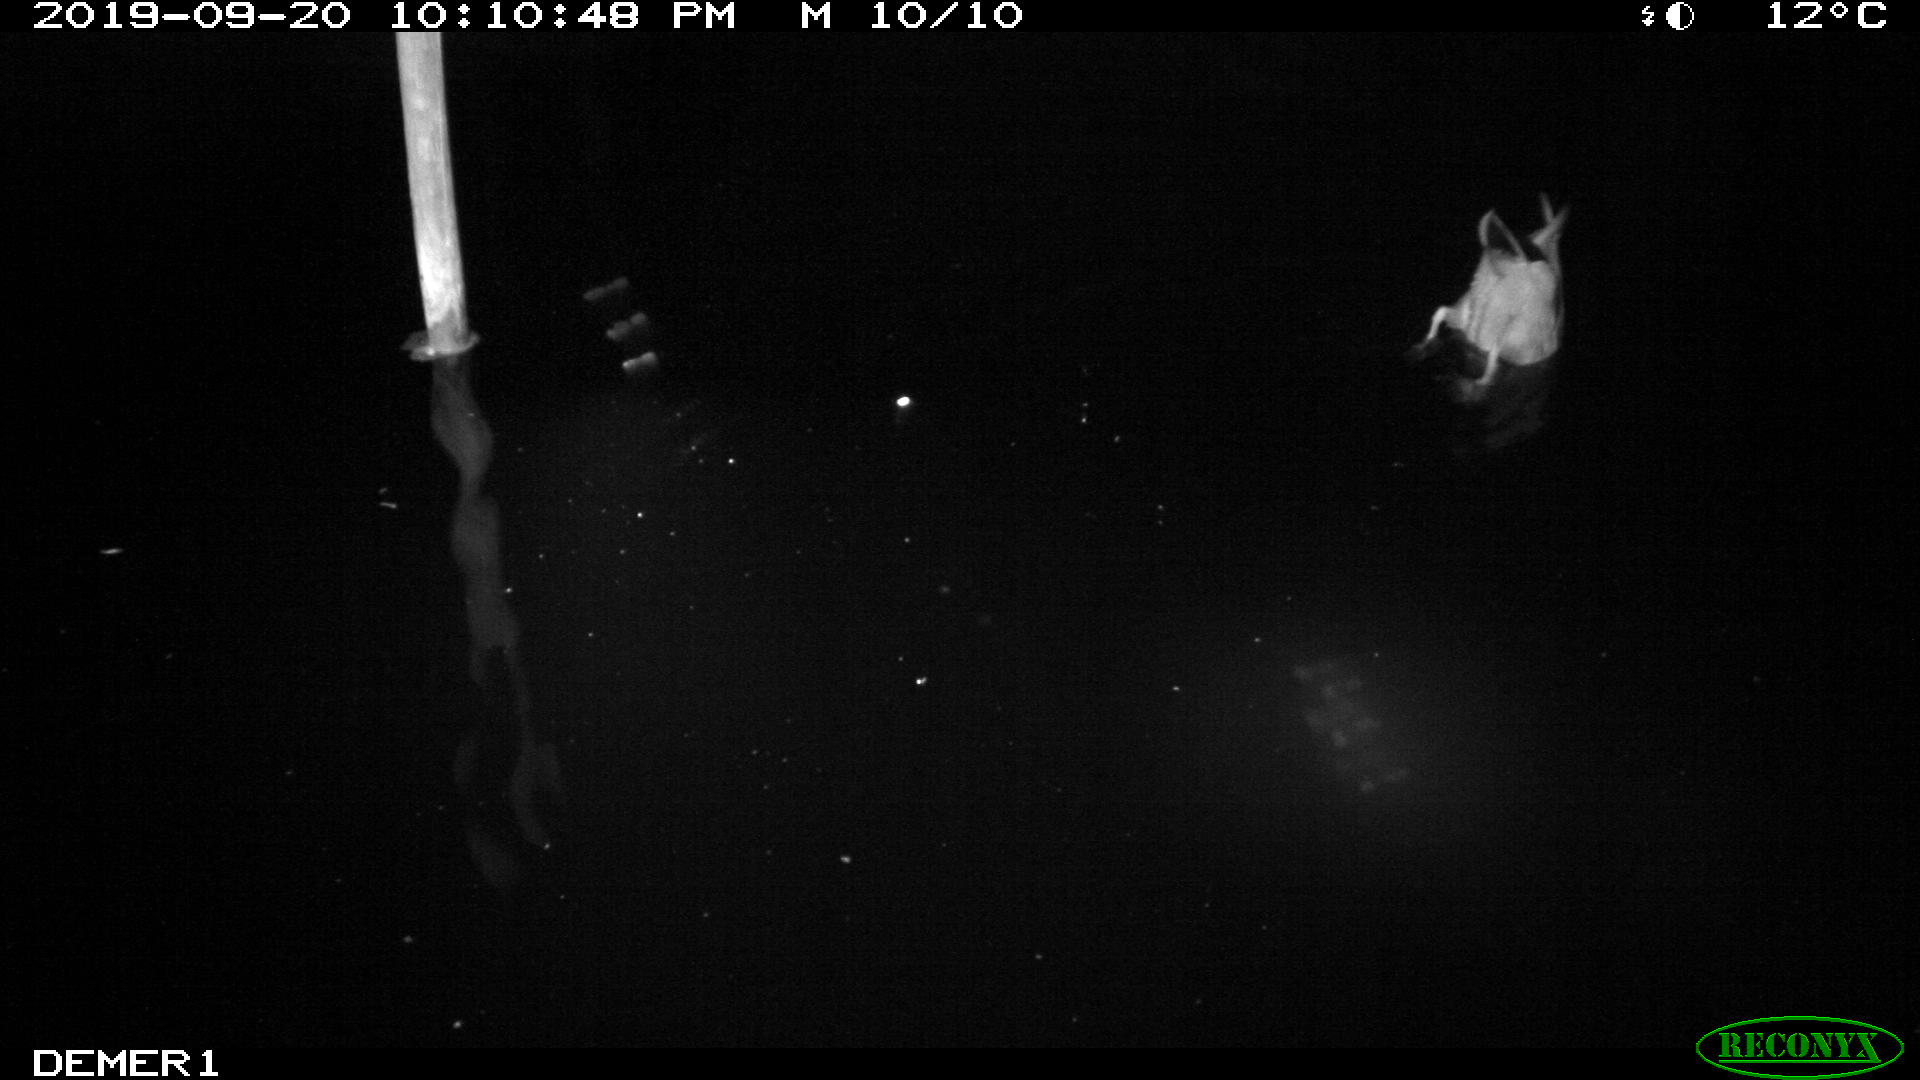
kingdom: Animalia
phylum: Chordata
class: Aves
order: Anseriformes
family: Anatidae
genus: Anas
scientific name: Anas platyrhynchos
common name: Mallard
